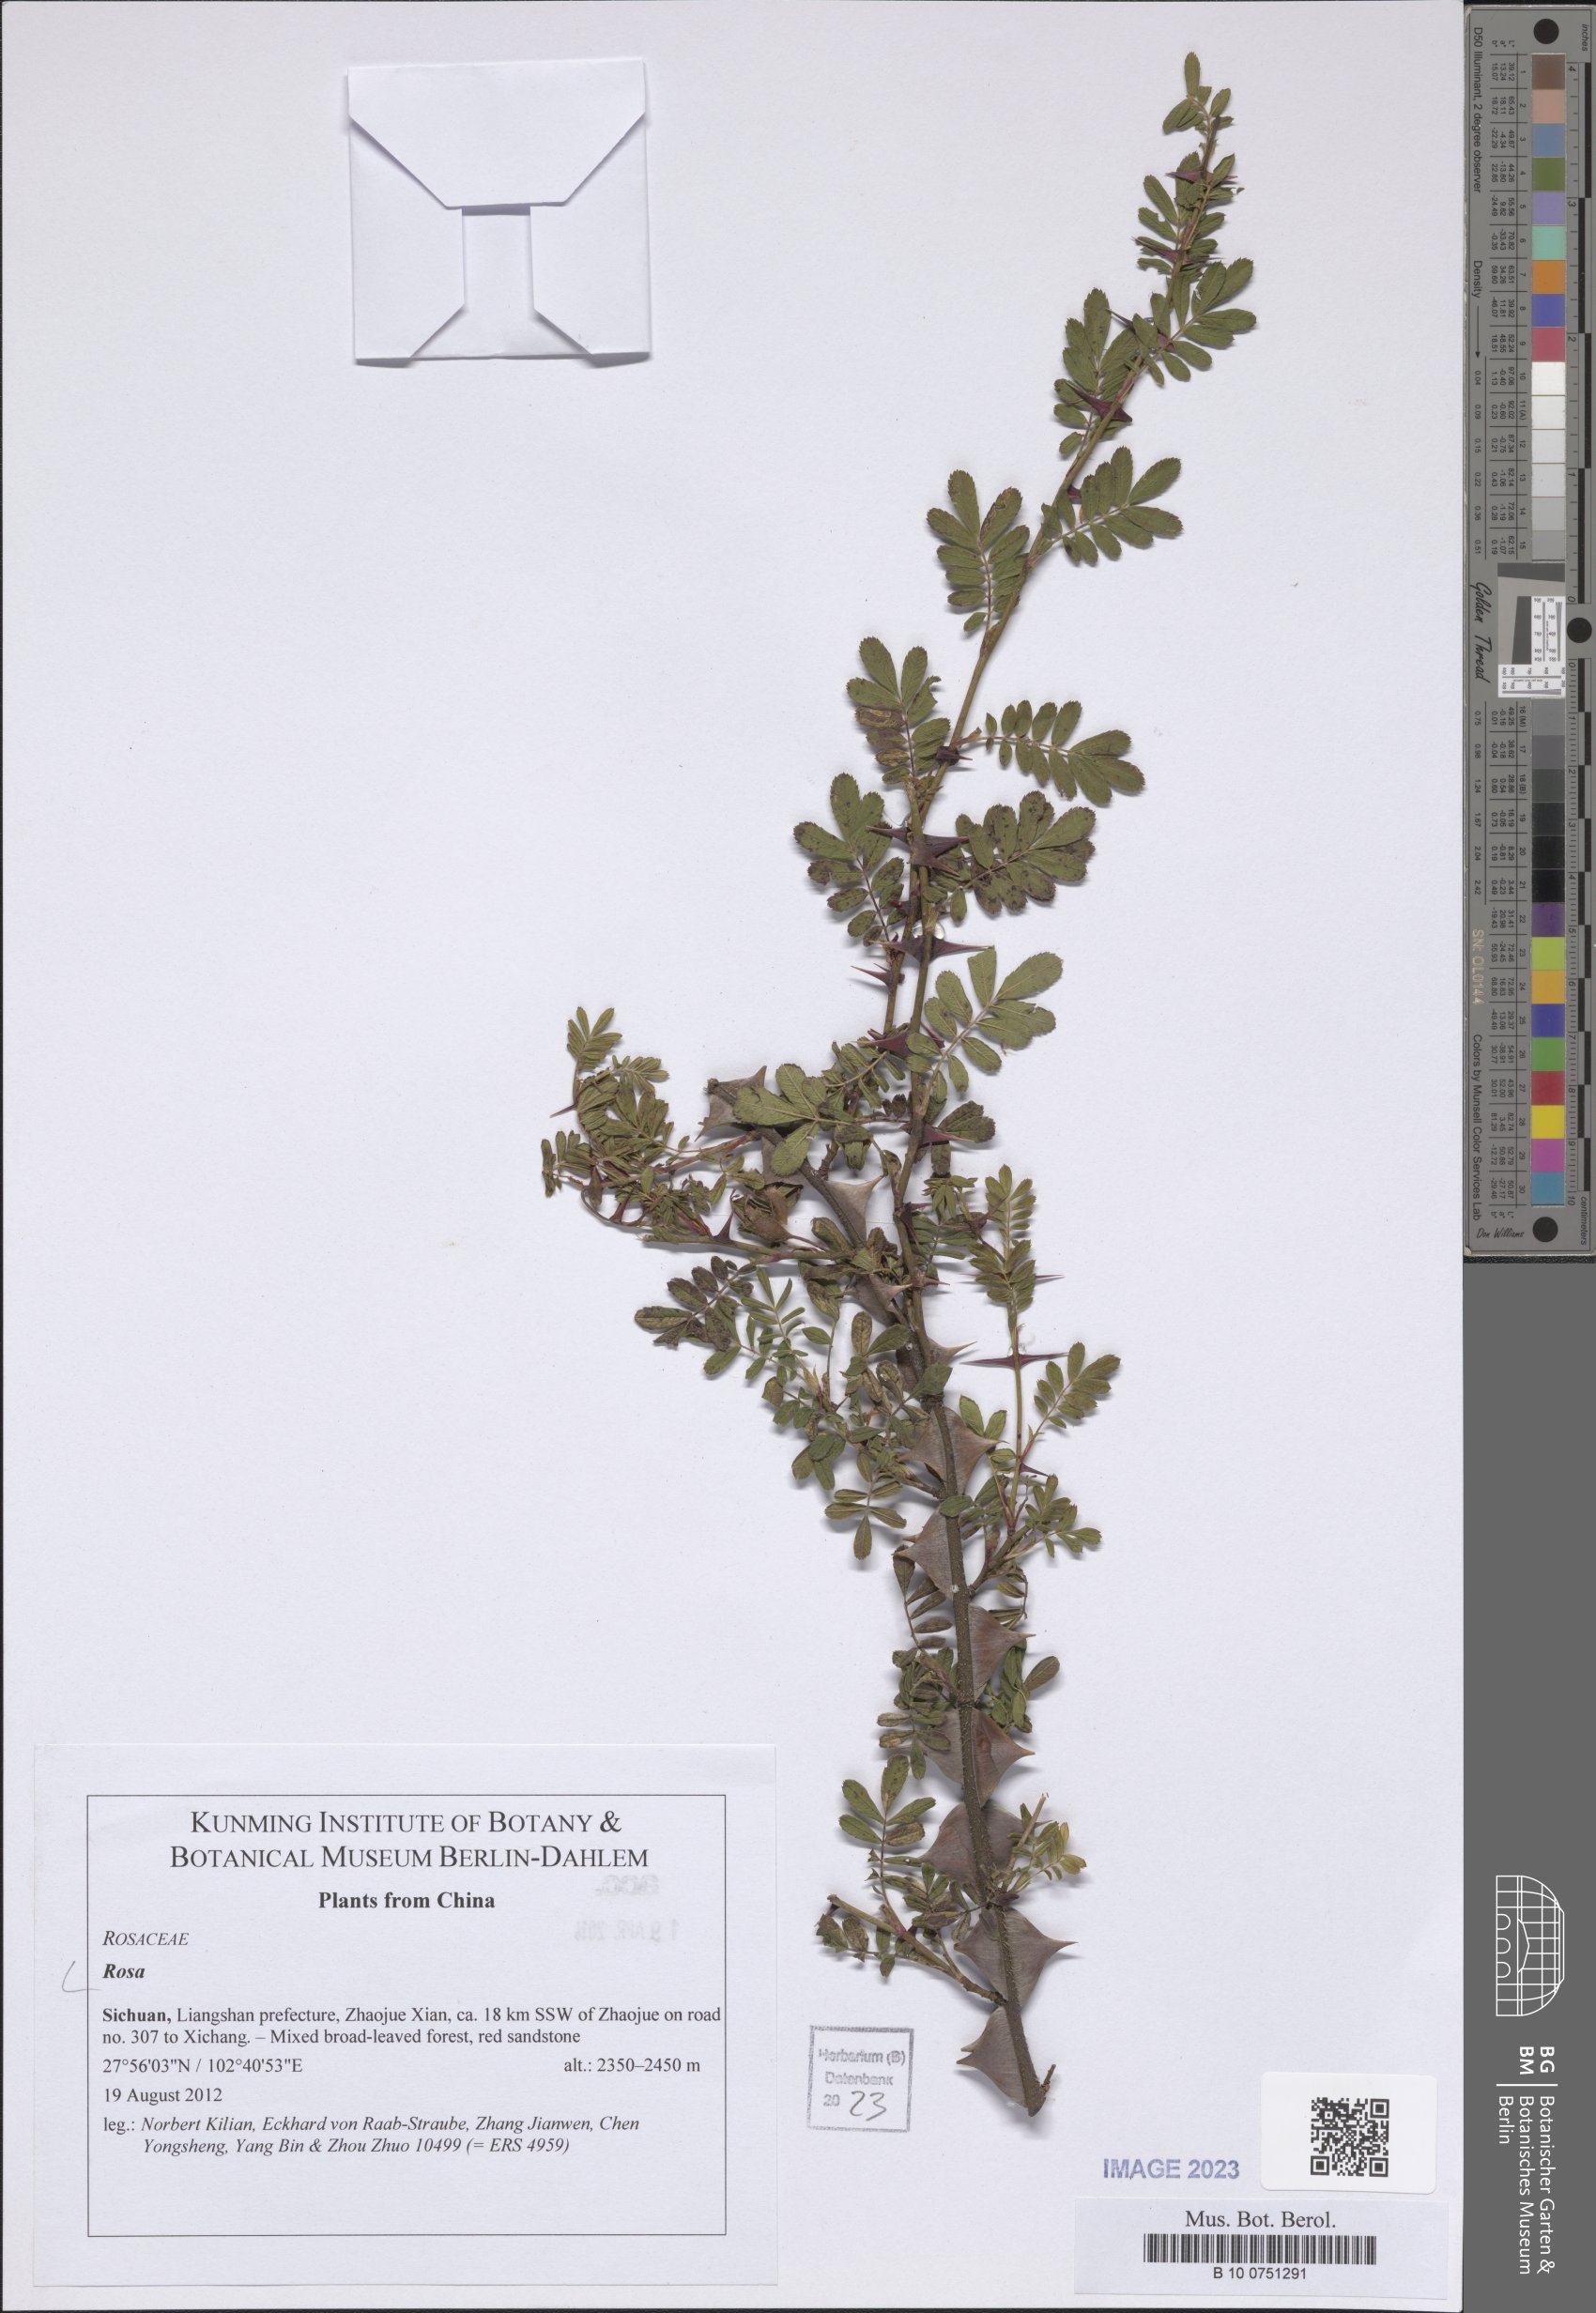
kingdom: Plantae
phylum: Tracheophyta
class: Magnoliopsida
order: Rosales
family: Rosaceae
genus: Rosa
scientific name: Rosa
